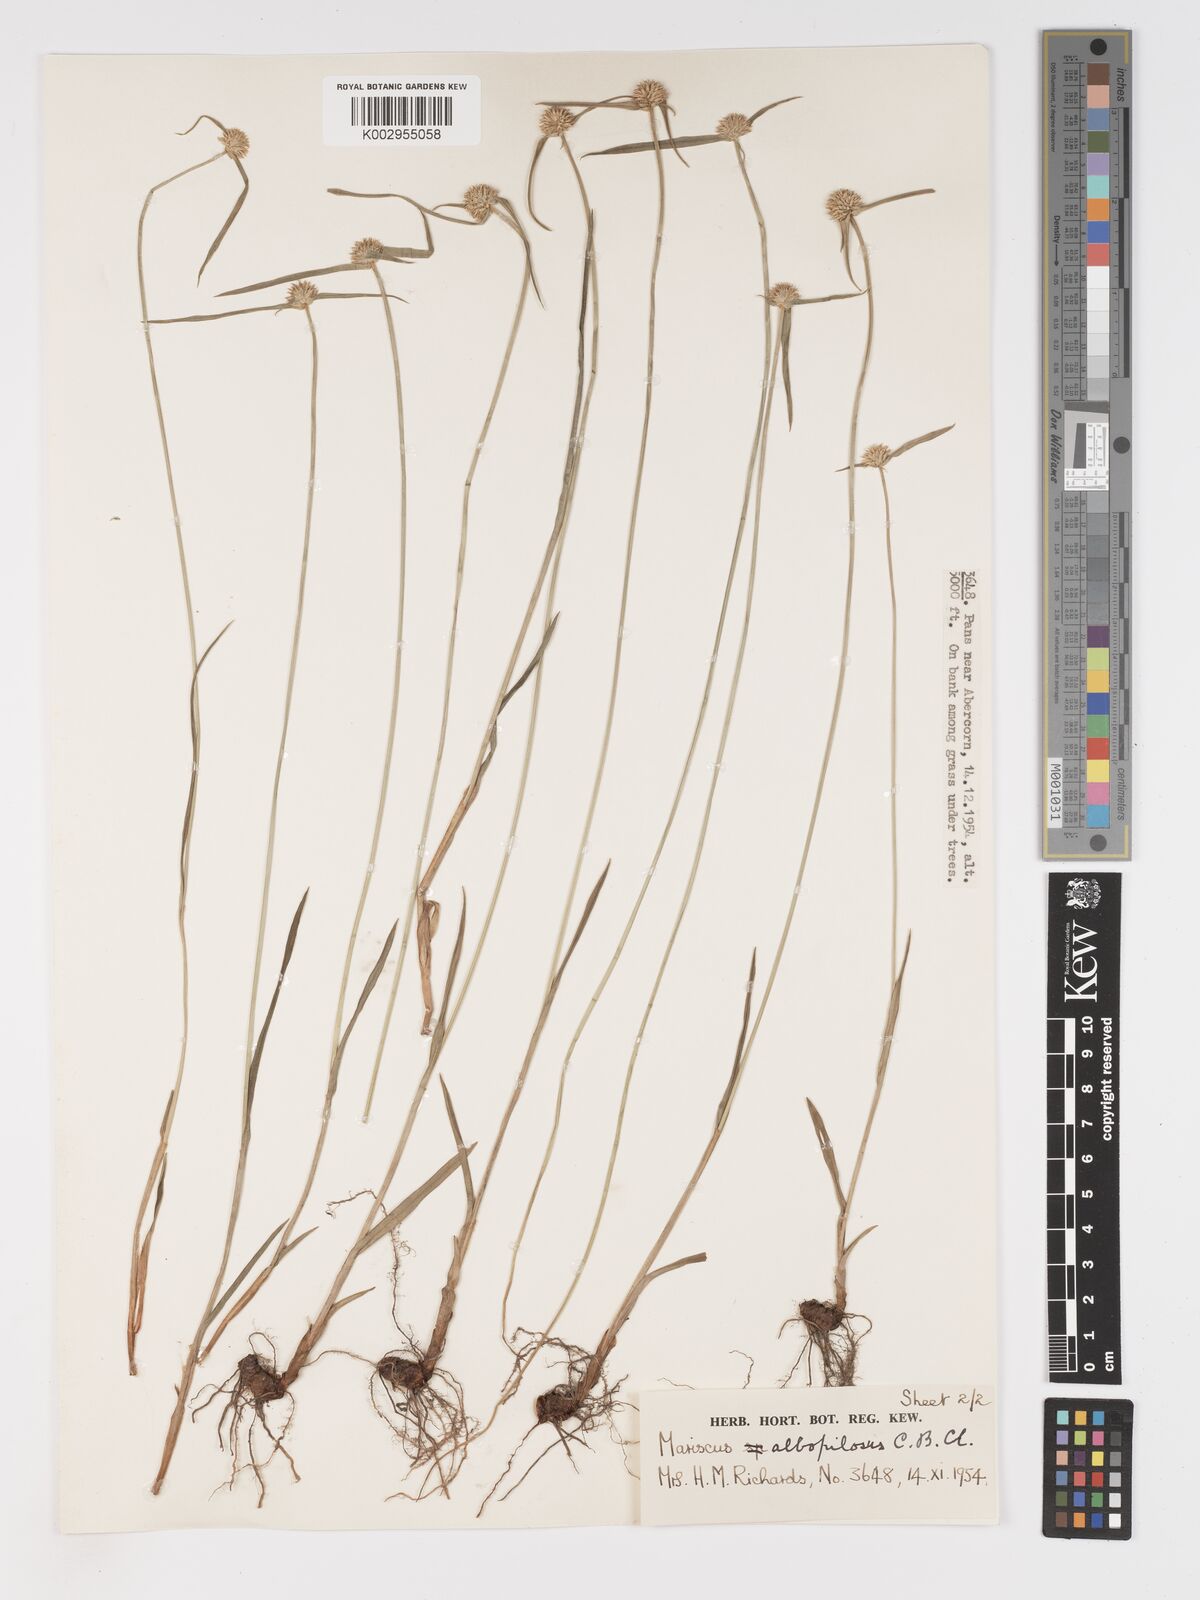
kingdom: Plantae
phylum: Tracheophyta
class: Liliopsida
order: Poales
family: Cyperaceae
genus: Cyperus
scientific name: Cyperus albopilosus
